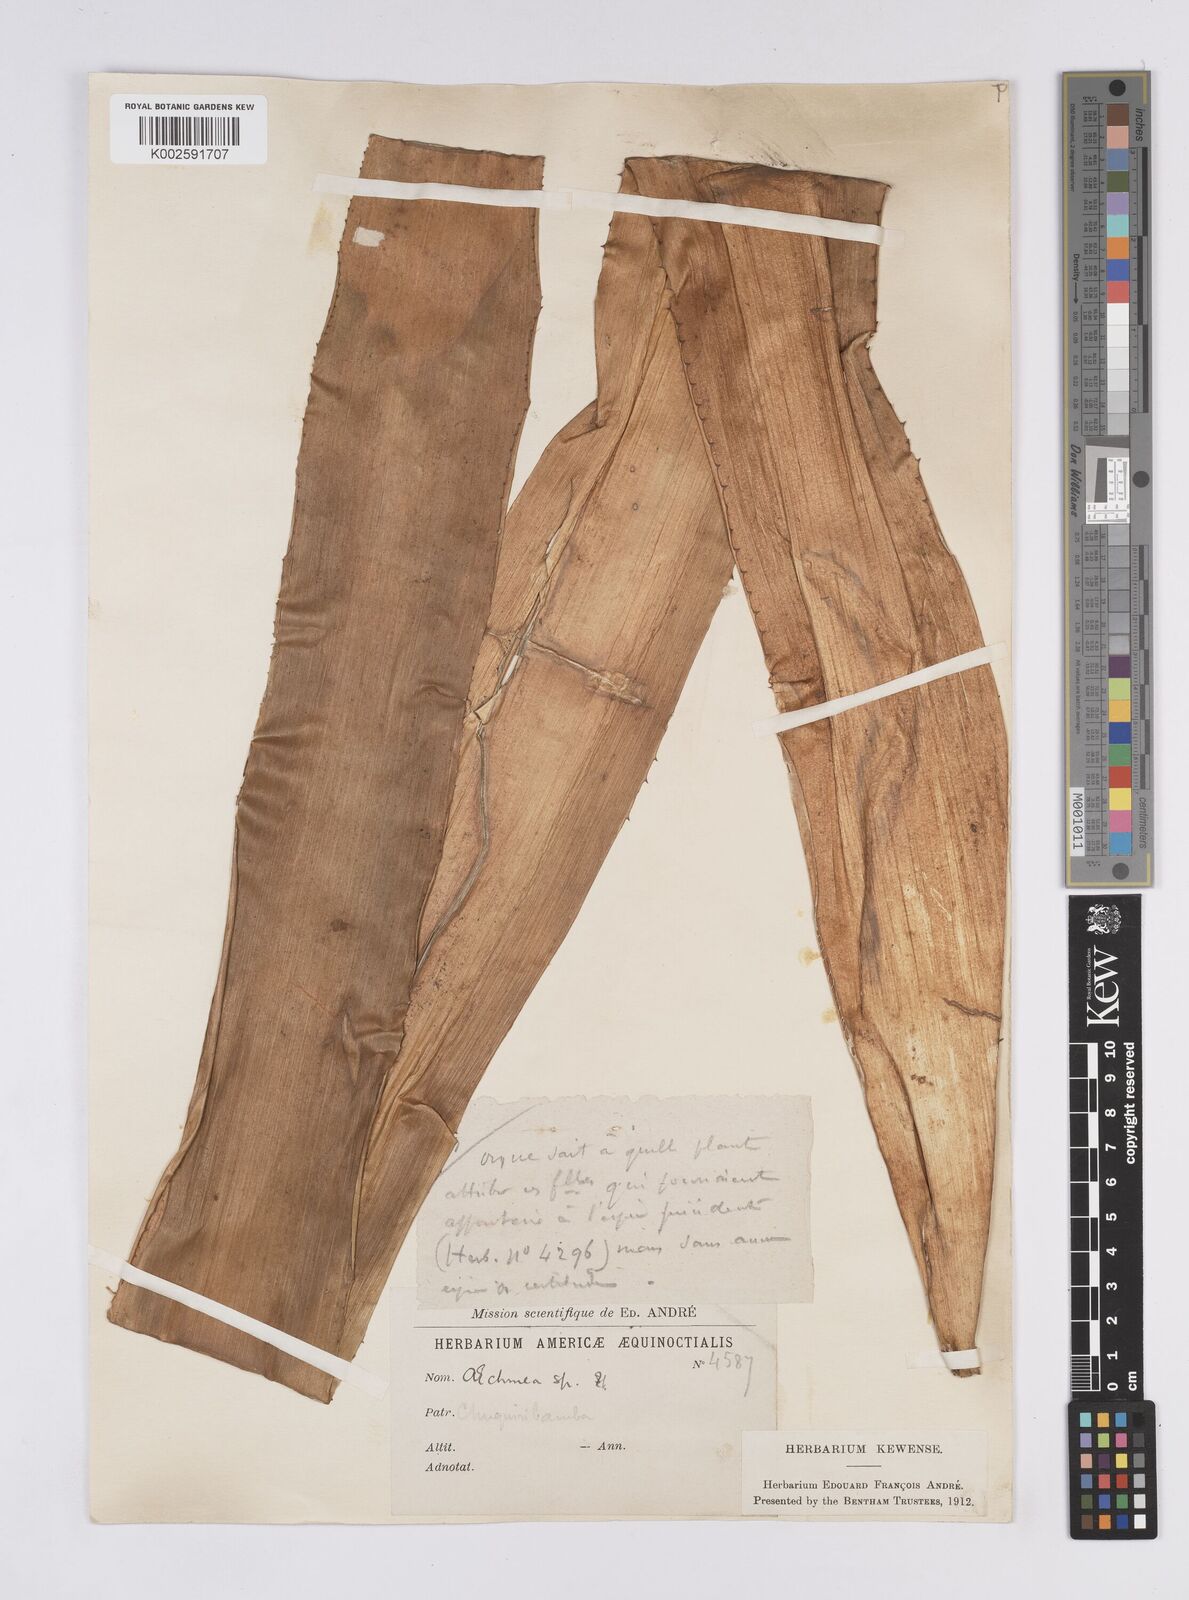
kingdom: Plantae
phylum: Tracheophyta
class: Liliopsida
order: Poales
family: Bromeliaceae
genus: Aechmea
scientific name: Aechmea
